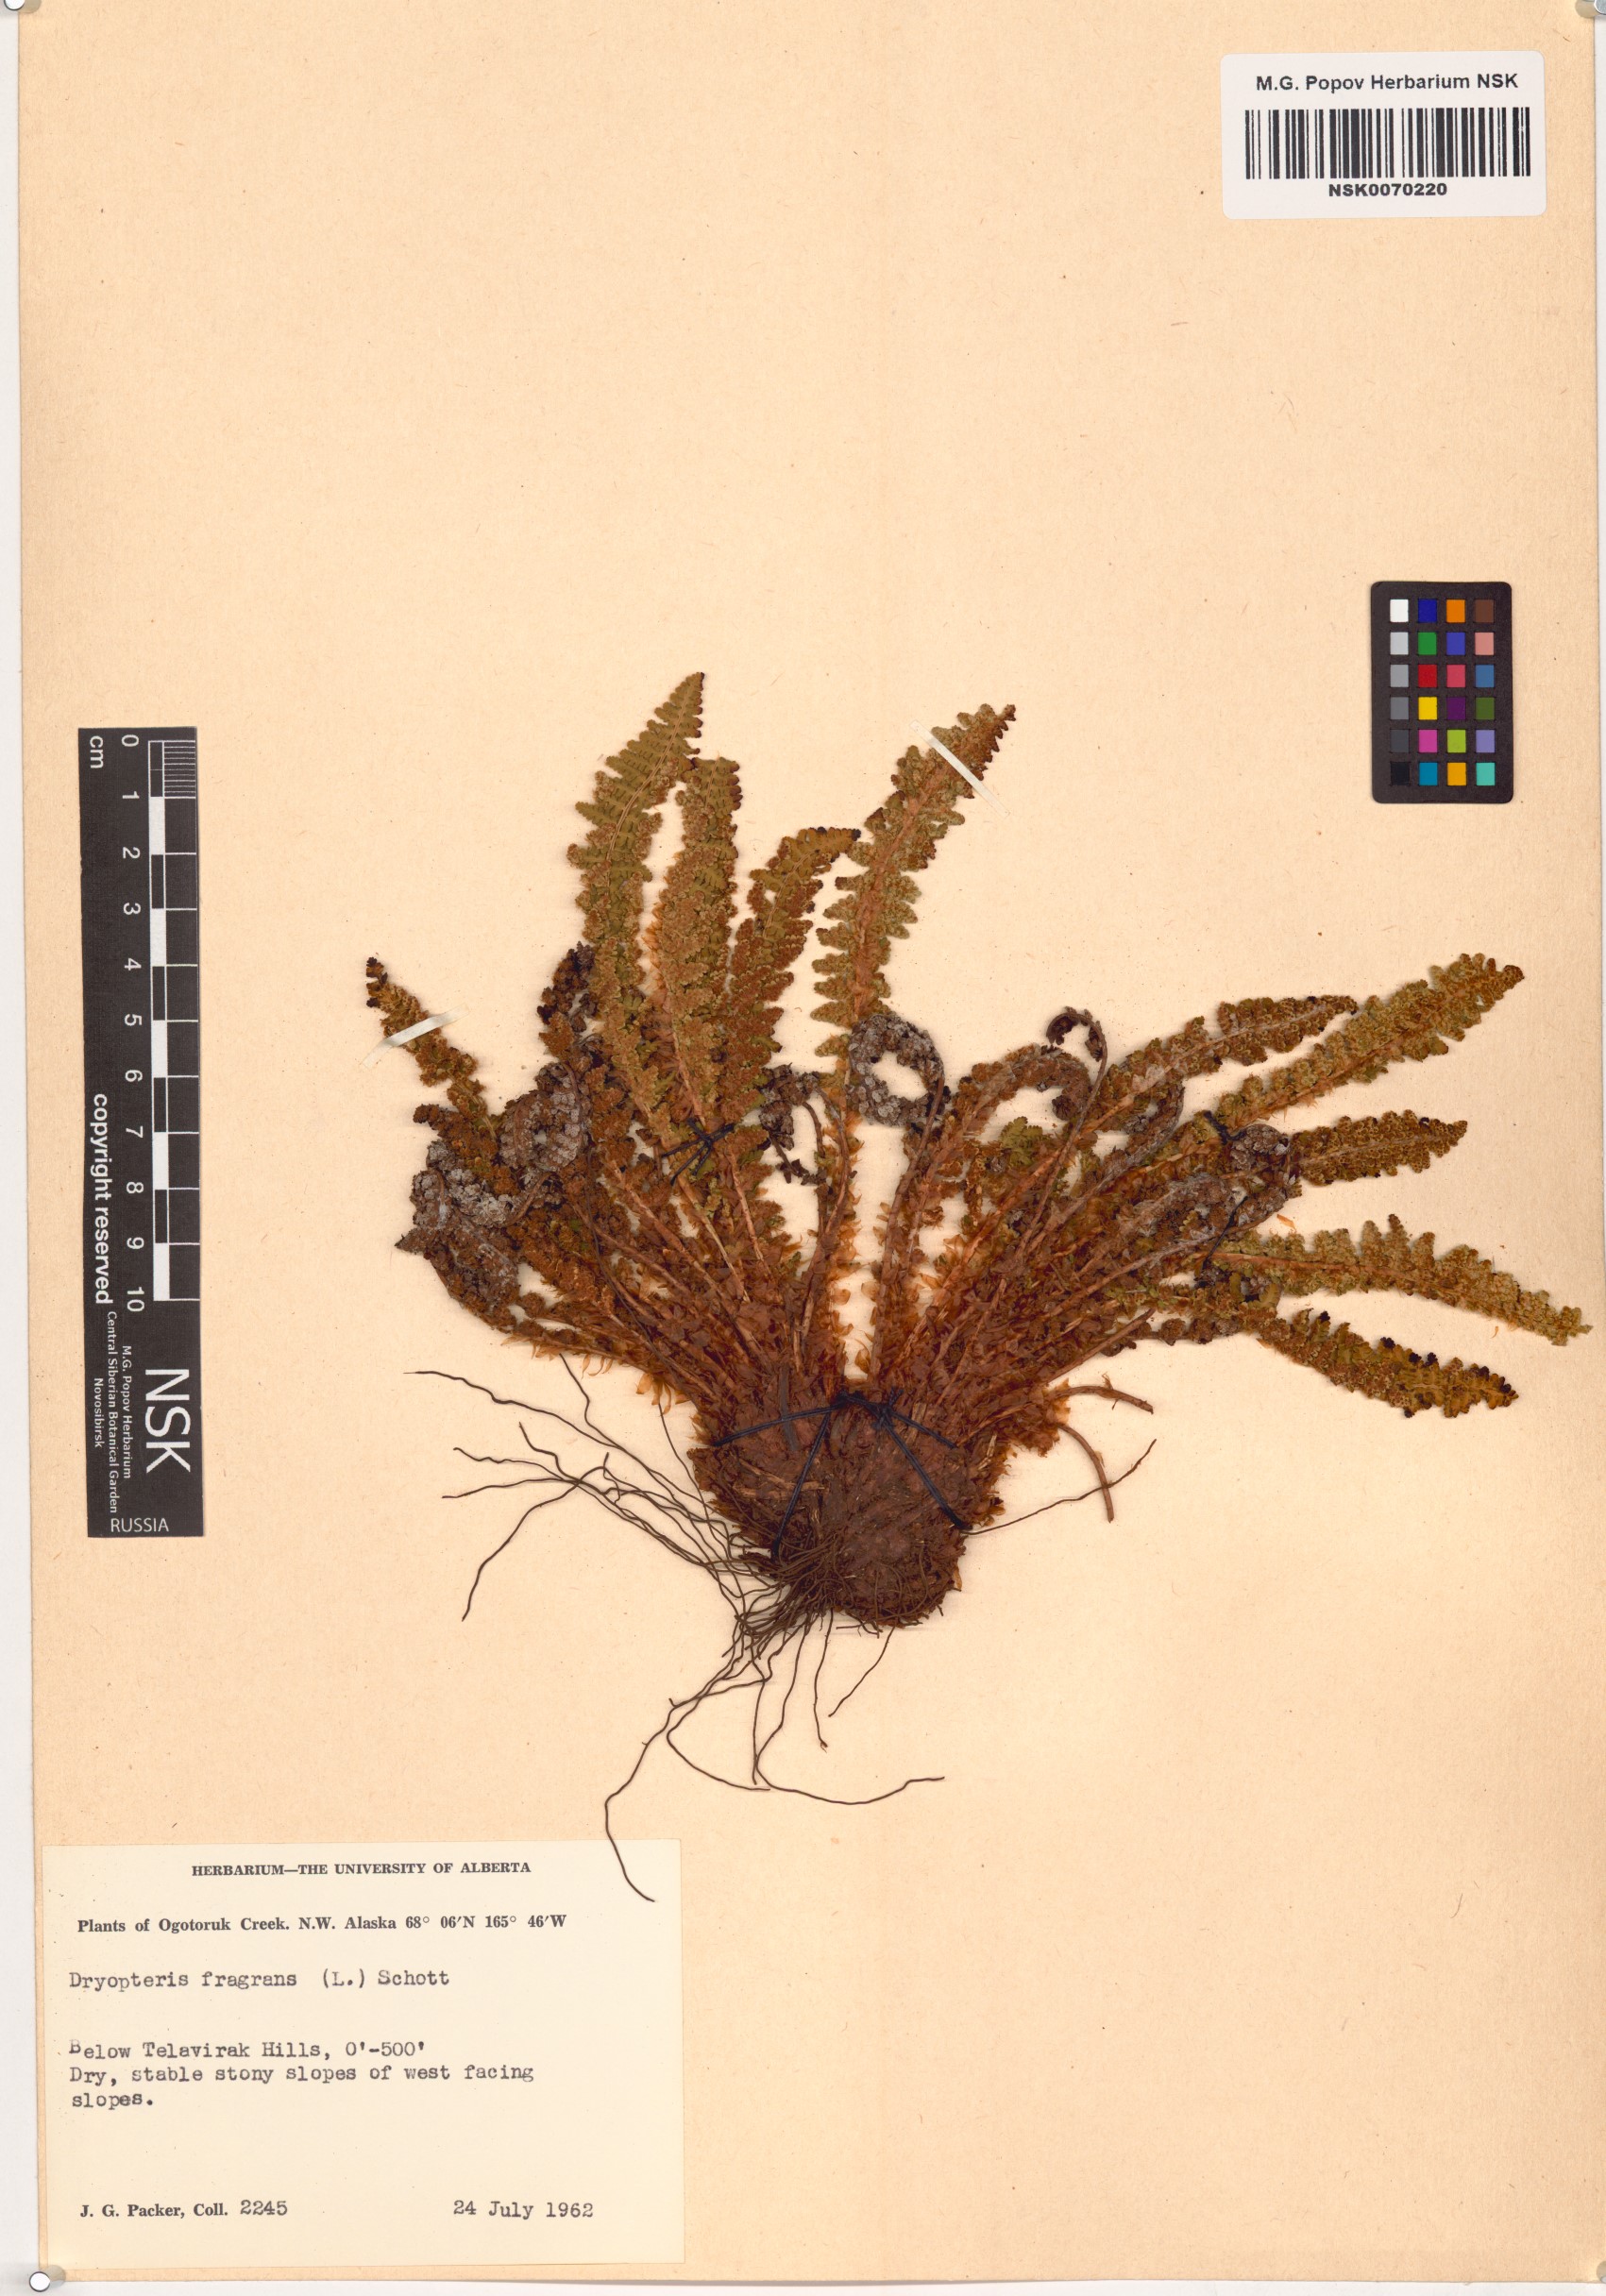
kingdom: Plantae
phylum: Tracheophyta
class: Polypodiopsida
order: Polypodiales
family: Dryopteridaceae
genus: Dryopteris
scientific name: Dryopteris fragrans
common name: Fragrant wood fern
